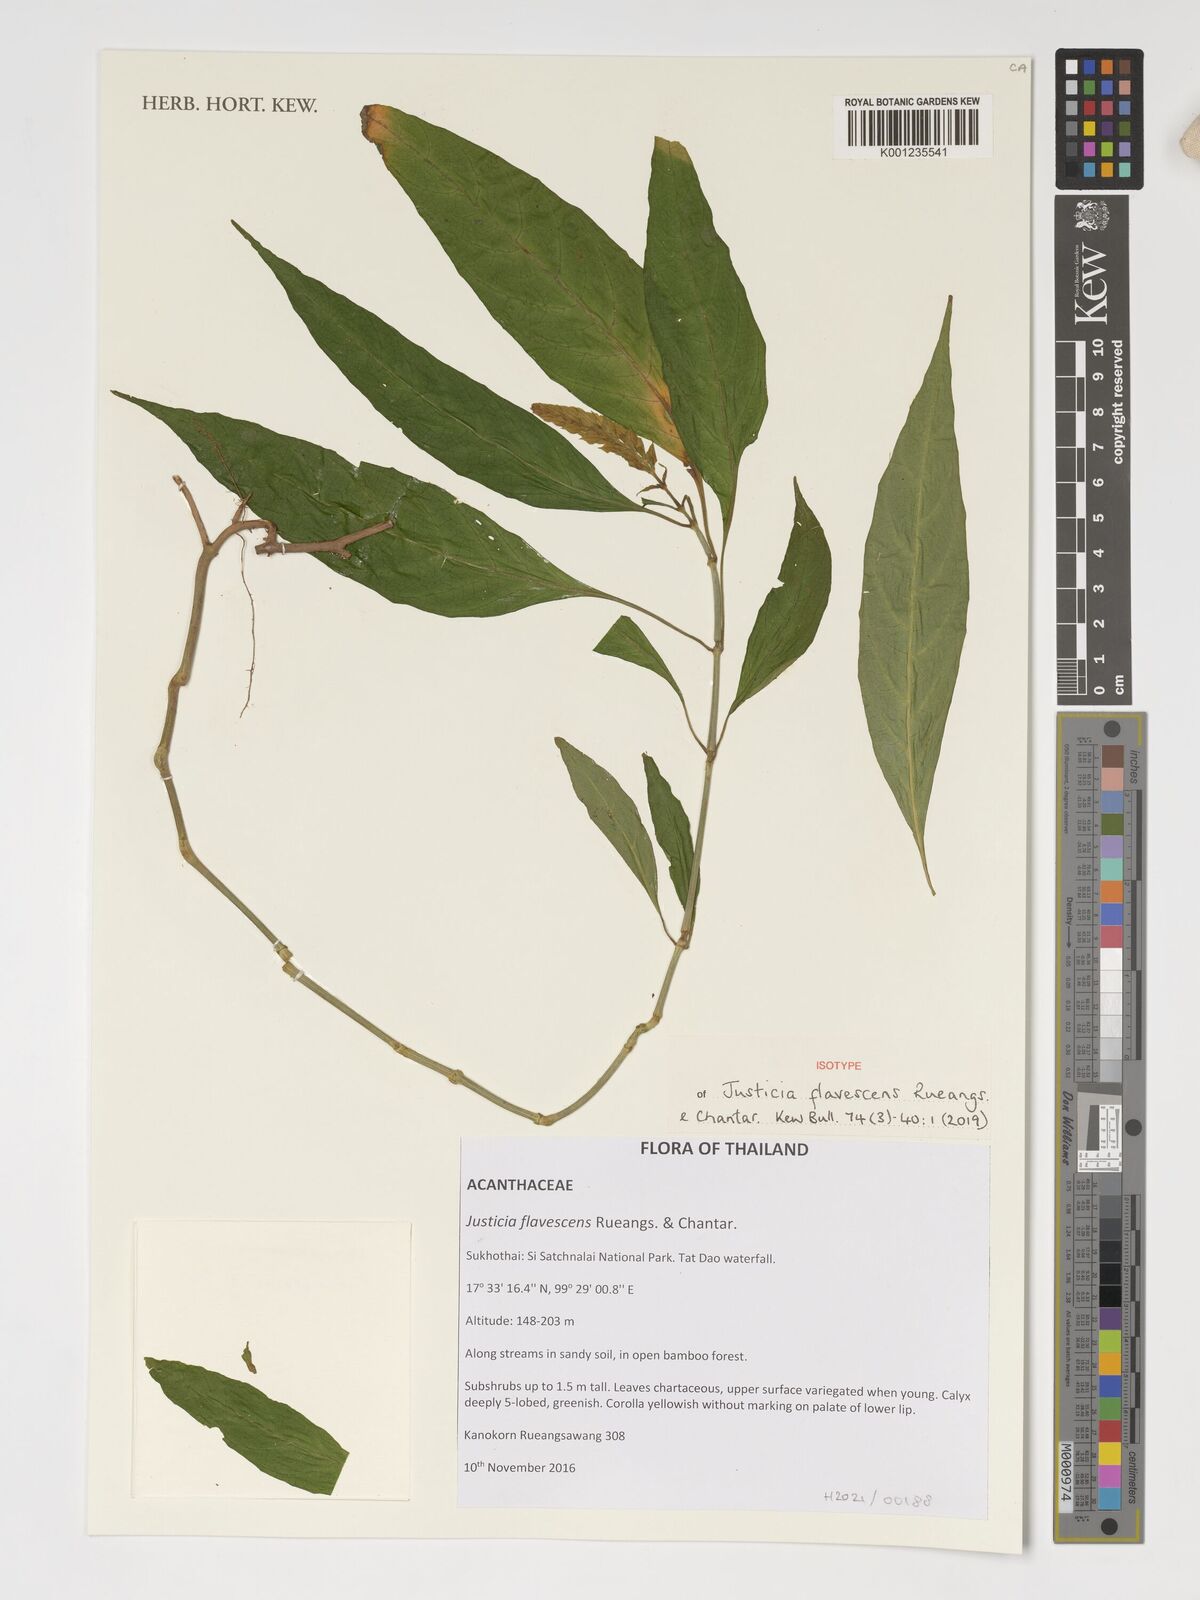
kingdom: Plantae
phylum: Tracheophyta
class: Magnoliopsida
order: Lamiales
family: Acanthaceae
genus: Justicia
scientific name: Justicia flavescens
